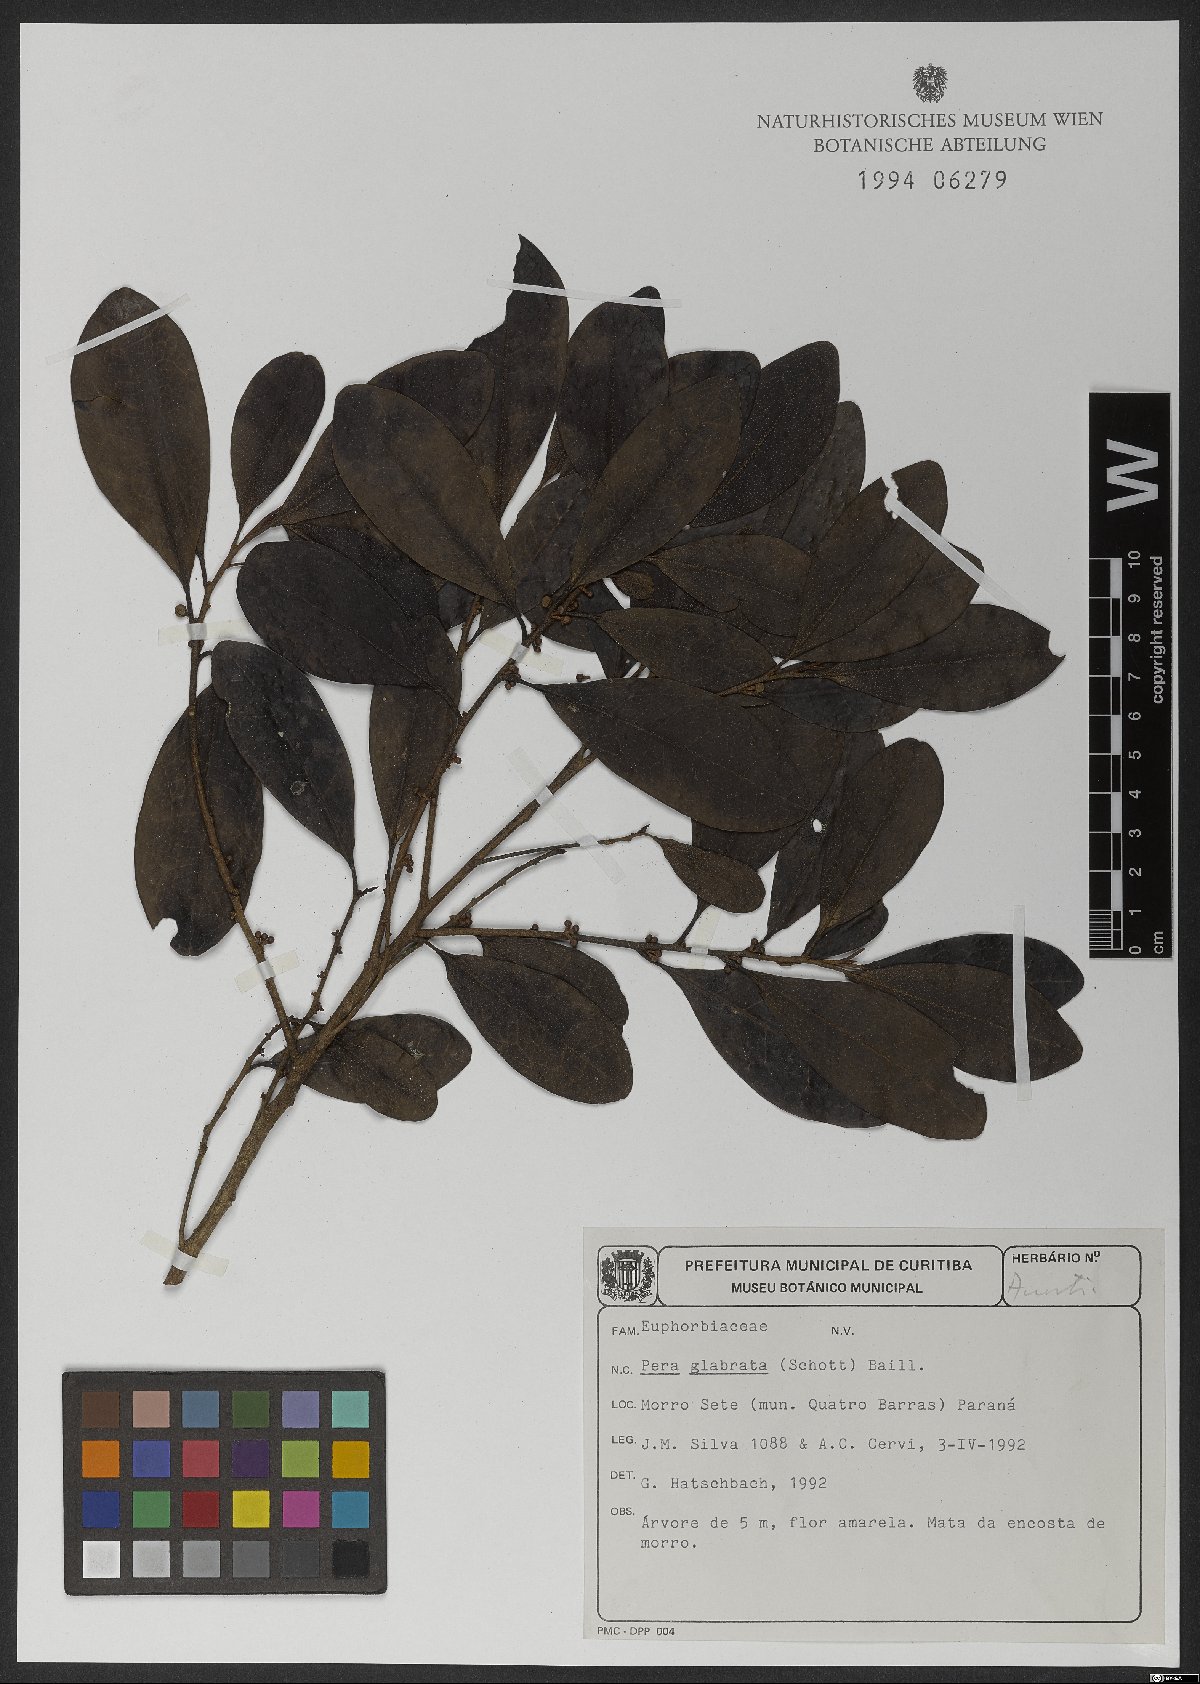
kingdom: Plantae
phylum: Tracheophyta
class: Magnoliopsida
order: Malpighiales
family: Peraceae
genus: Pera
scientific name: Pera glabrata
